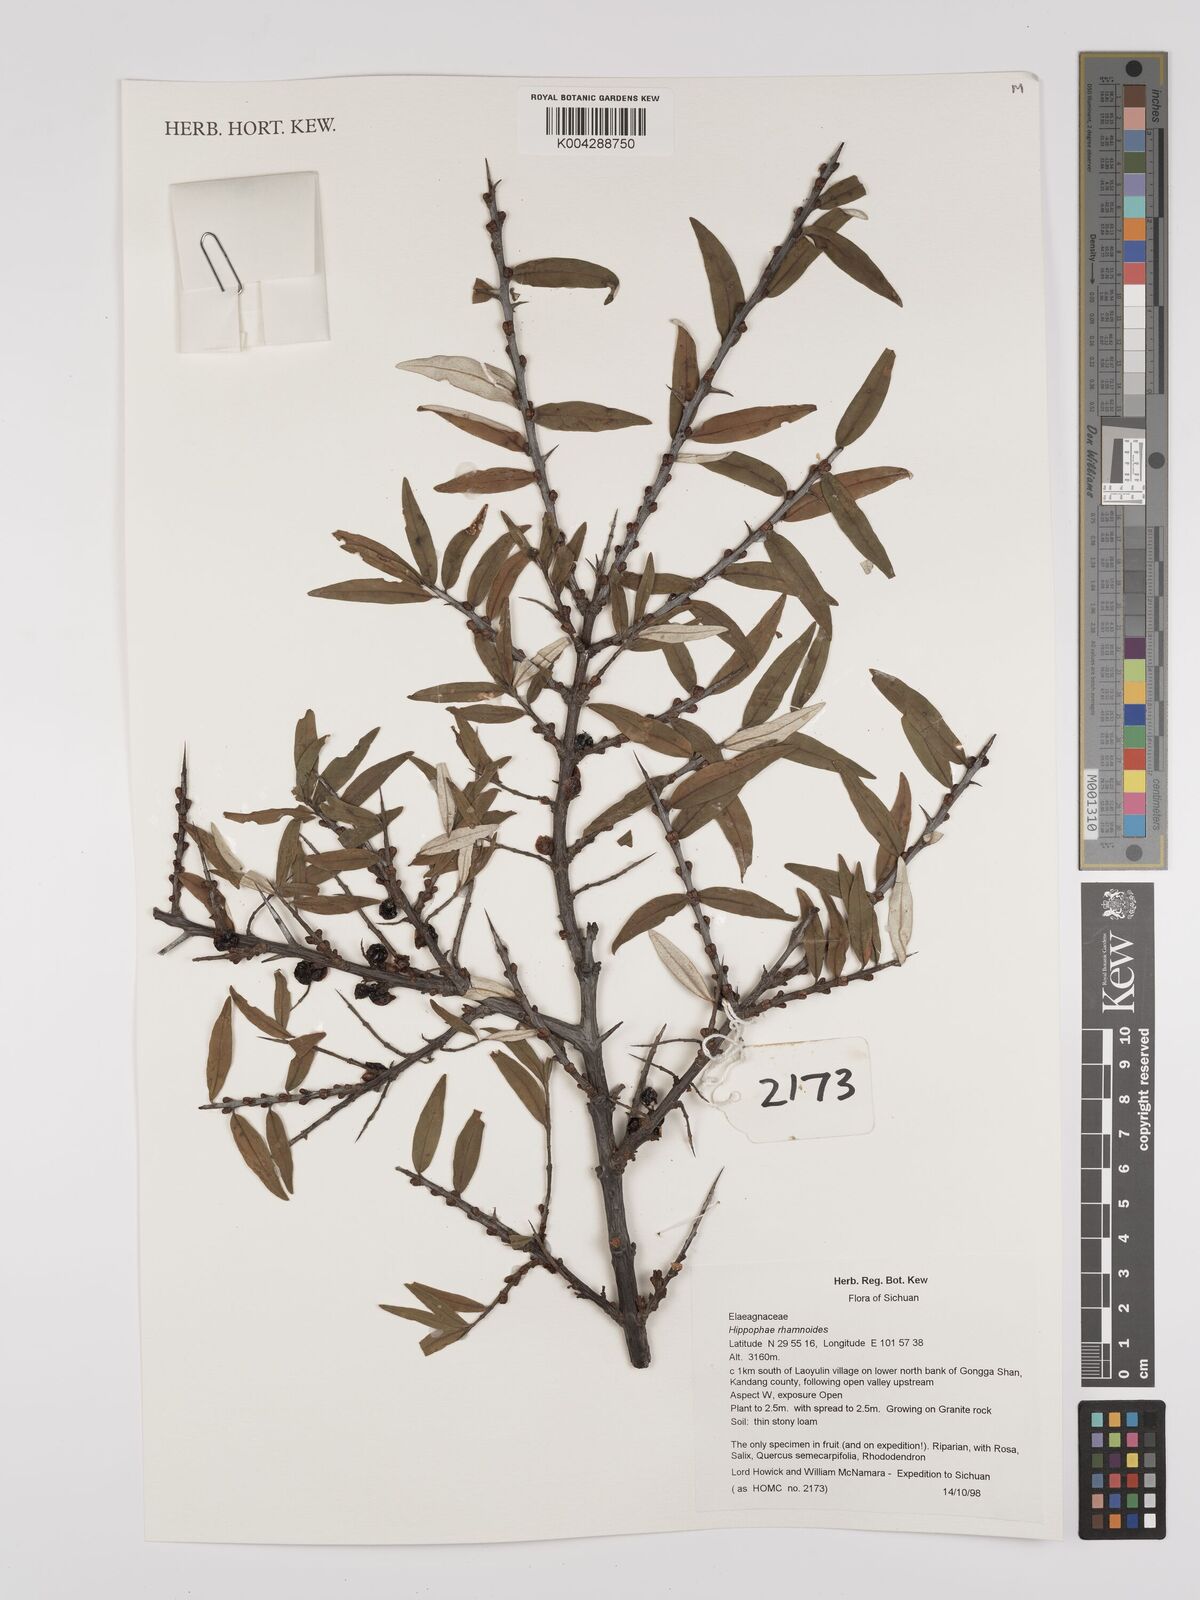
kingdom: Plantae
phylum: Tracheophyta
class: Magnoliopsida
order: Rosales
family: Elaeagnaceae
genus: Hippophae
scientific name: Hippophae rhamnoides
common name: Sea-buckthorn
